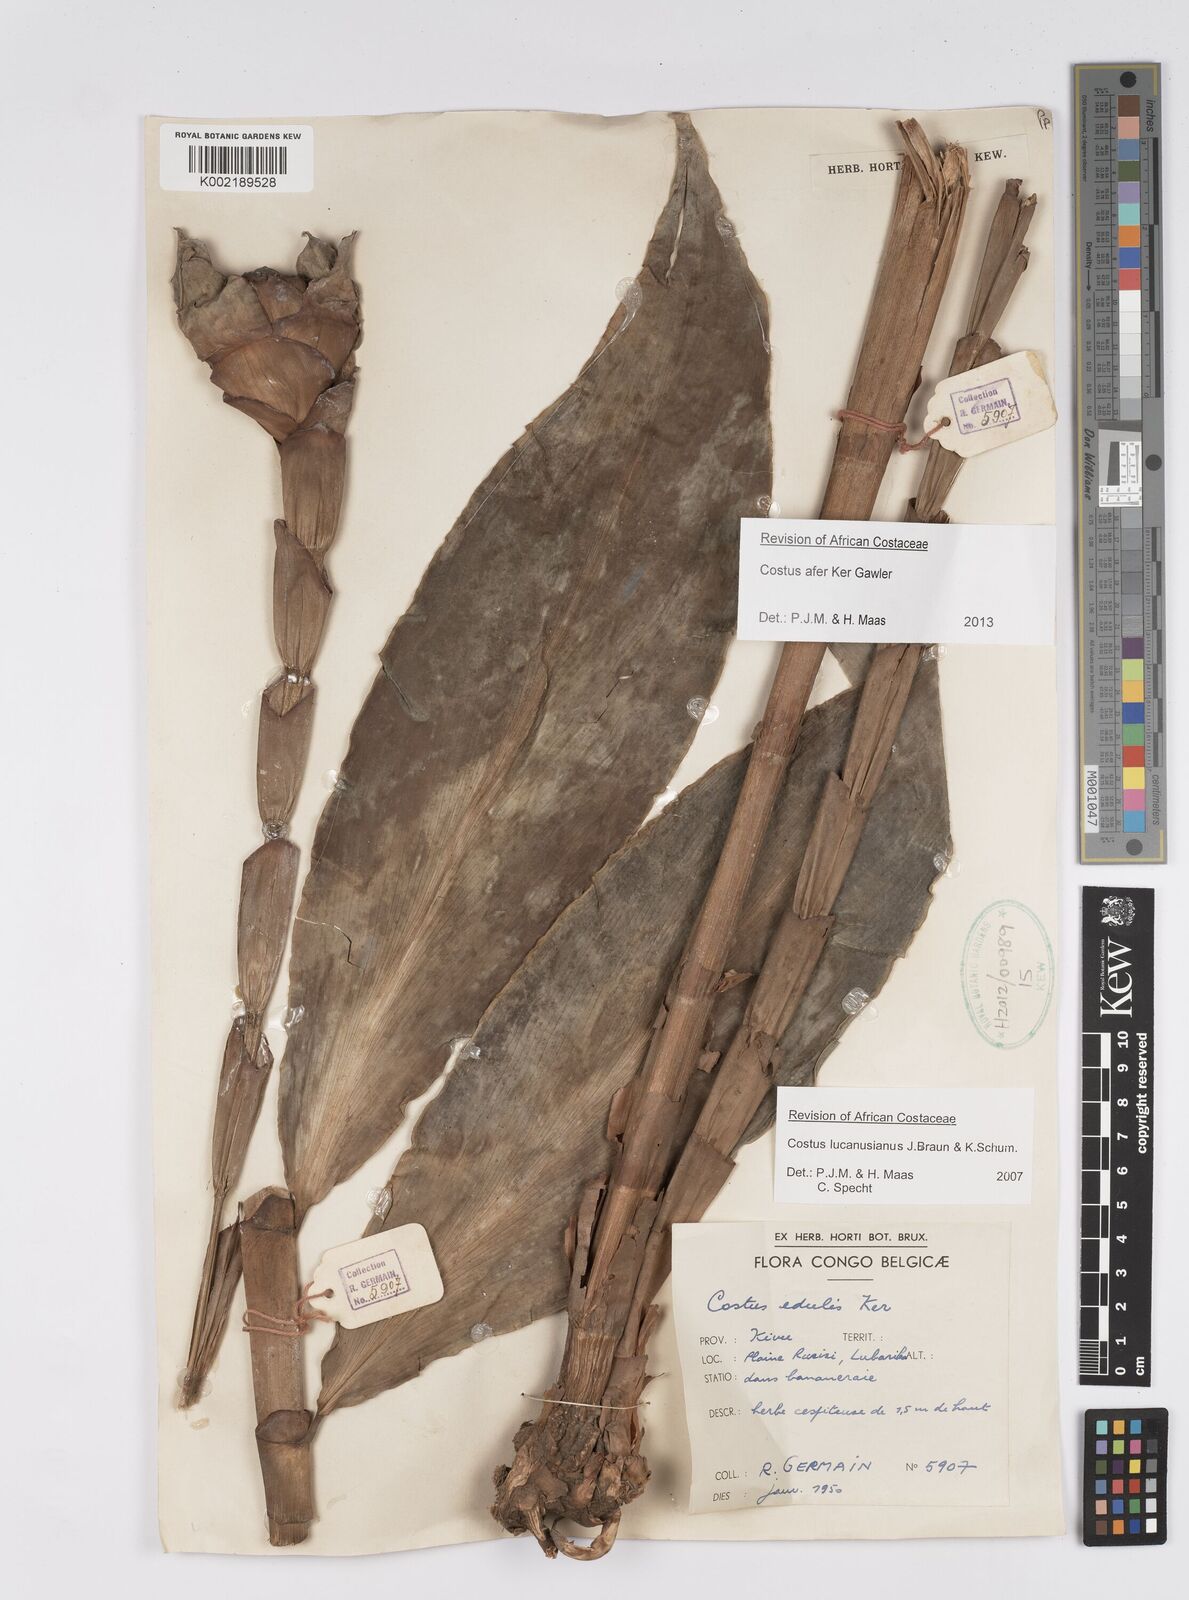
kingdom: Plantae
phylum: Tracheophyta
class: Liliopsida
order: Zingiberales
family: Costaceae
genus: Costus
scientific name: Costus afer
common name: Spiral-ginger
